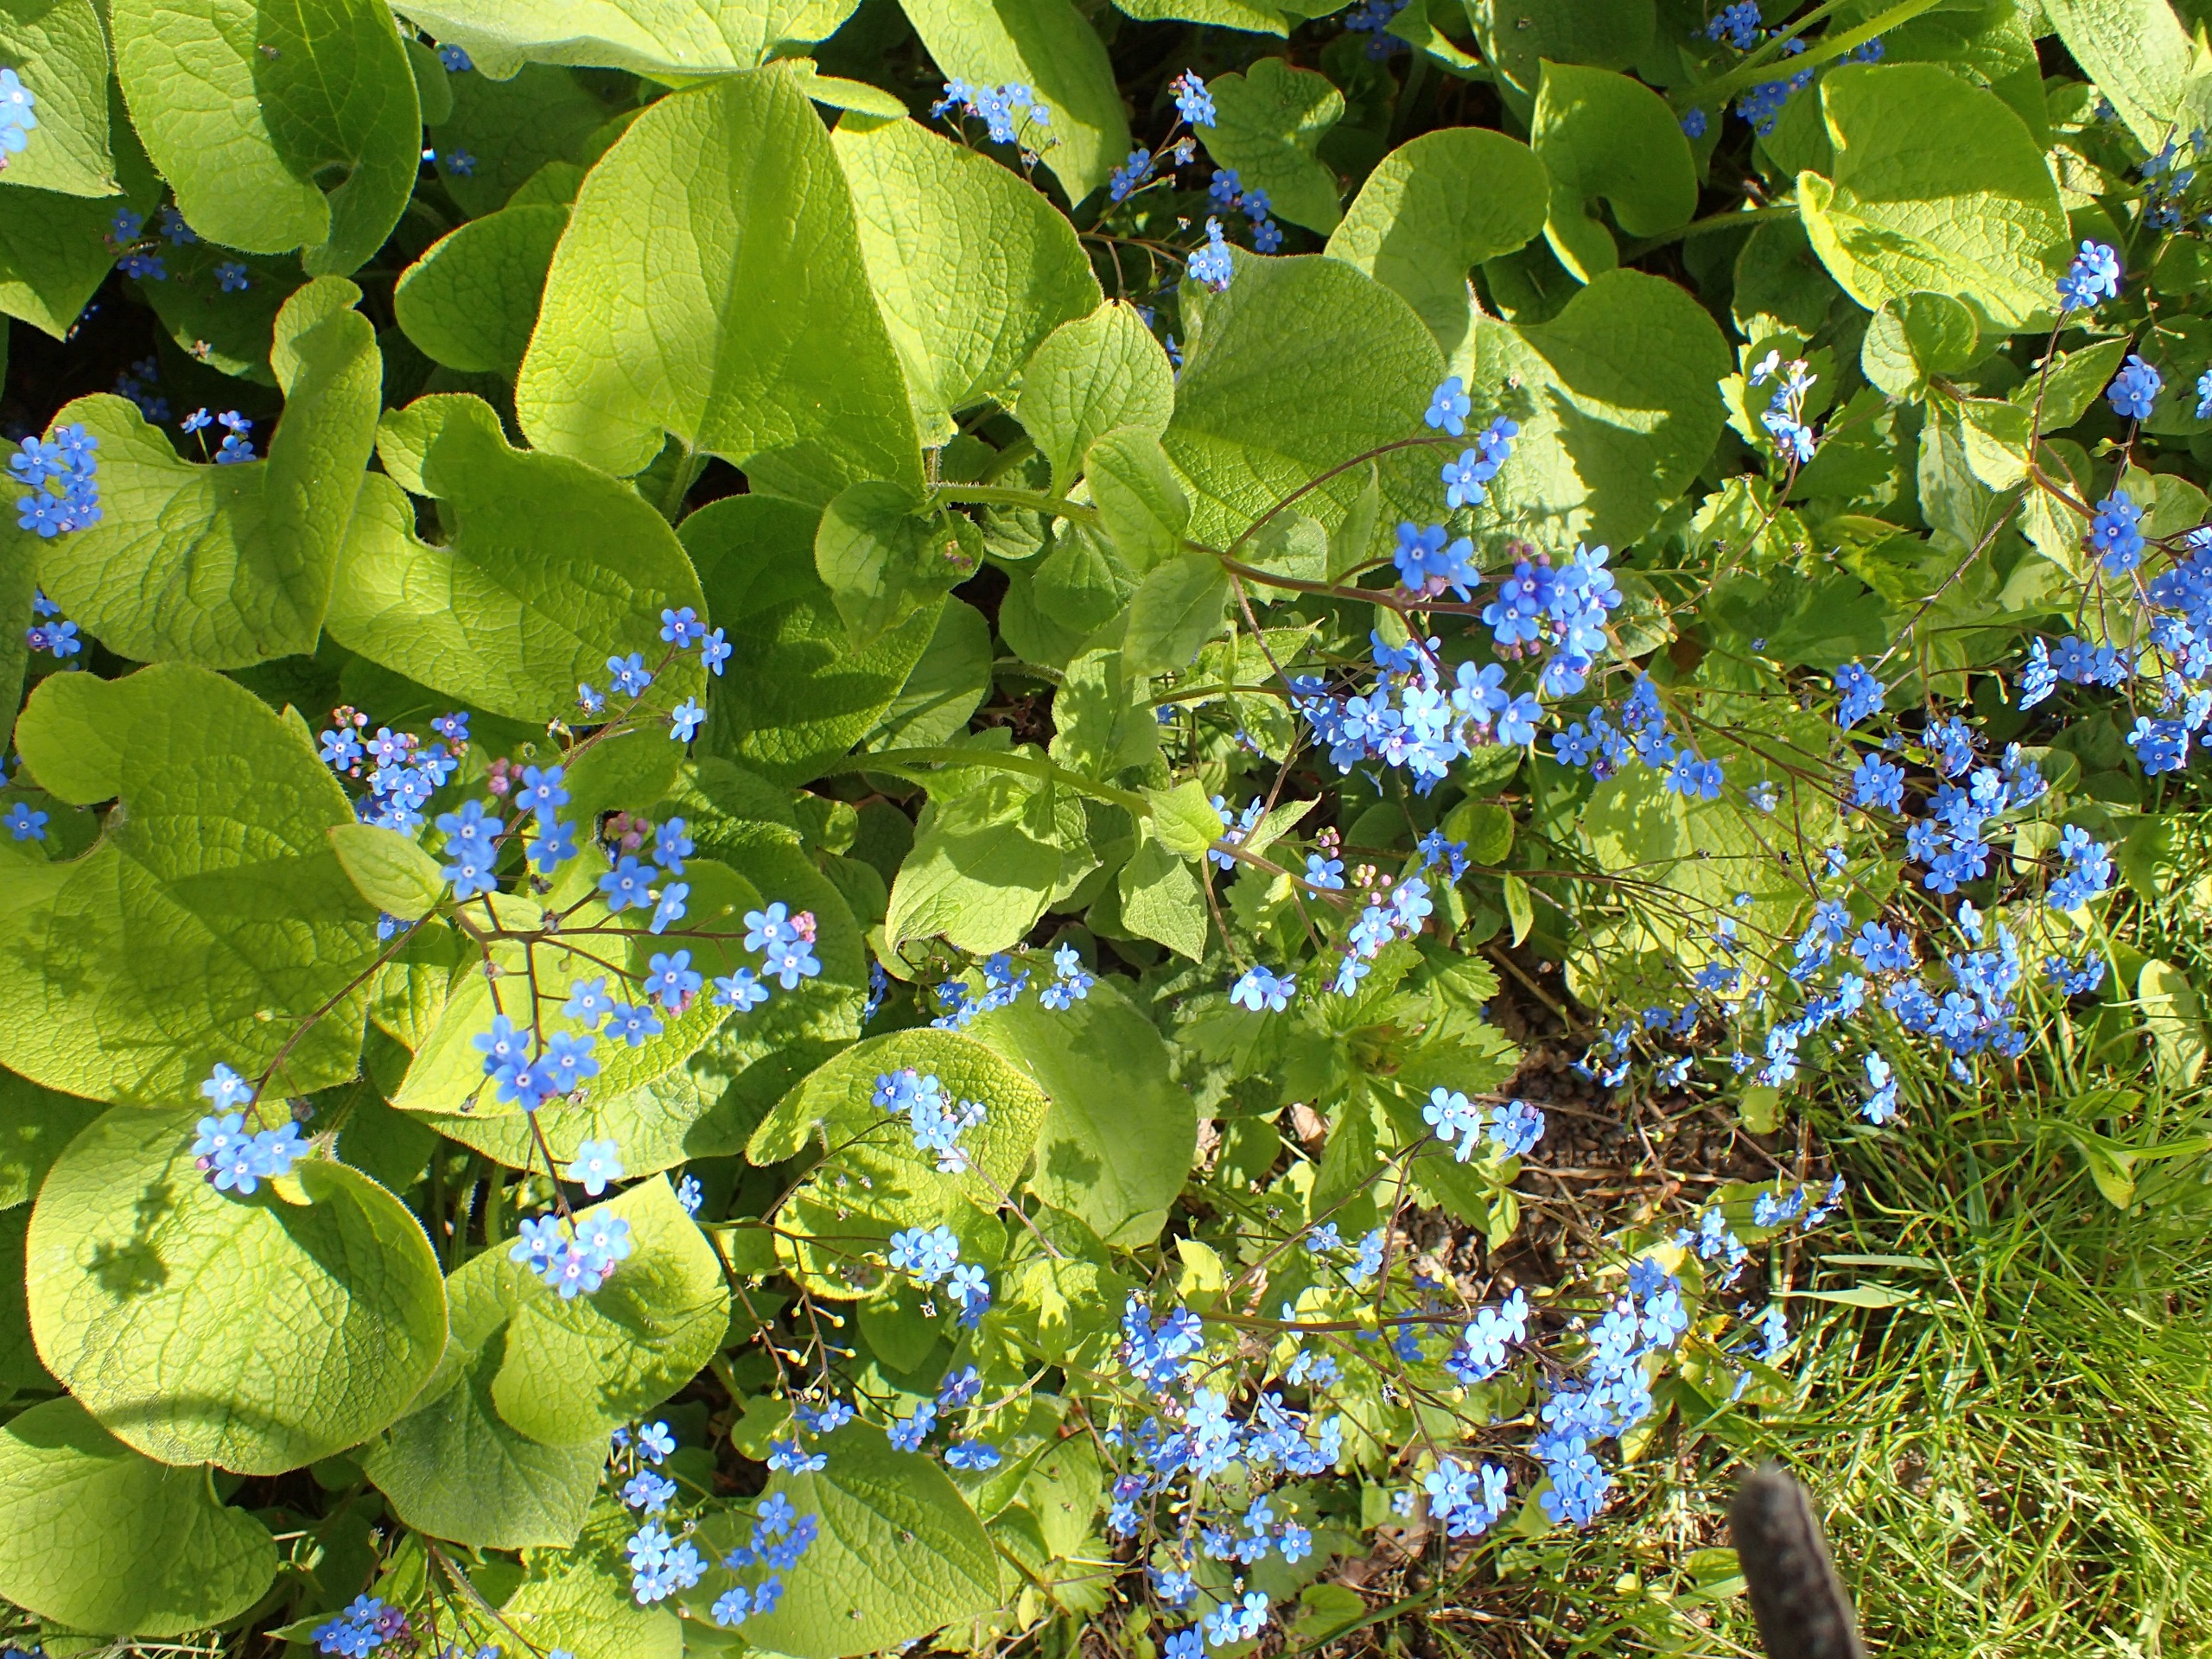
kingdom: Plantae
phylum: Tracheophyta
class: Magnoliopsida
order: Boraginales
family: Boraginaceae
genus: Brunnera
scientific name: Brunnera macrophylla
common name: Kærmindesøster
